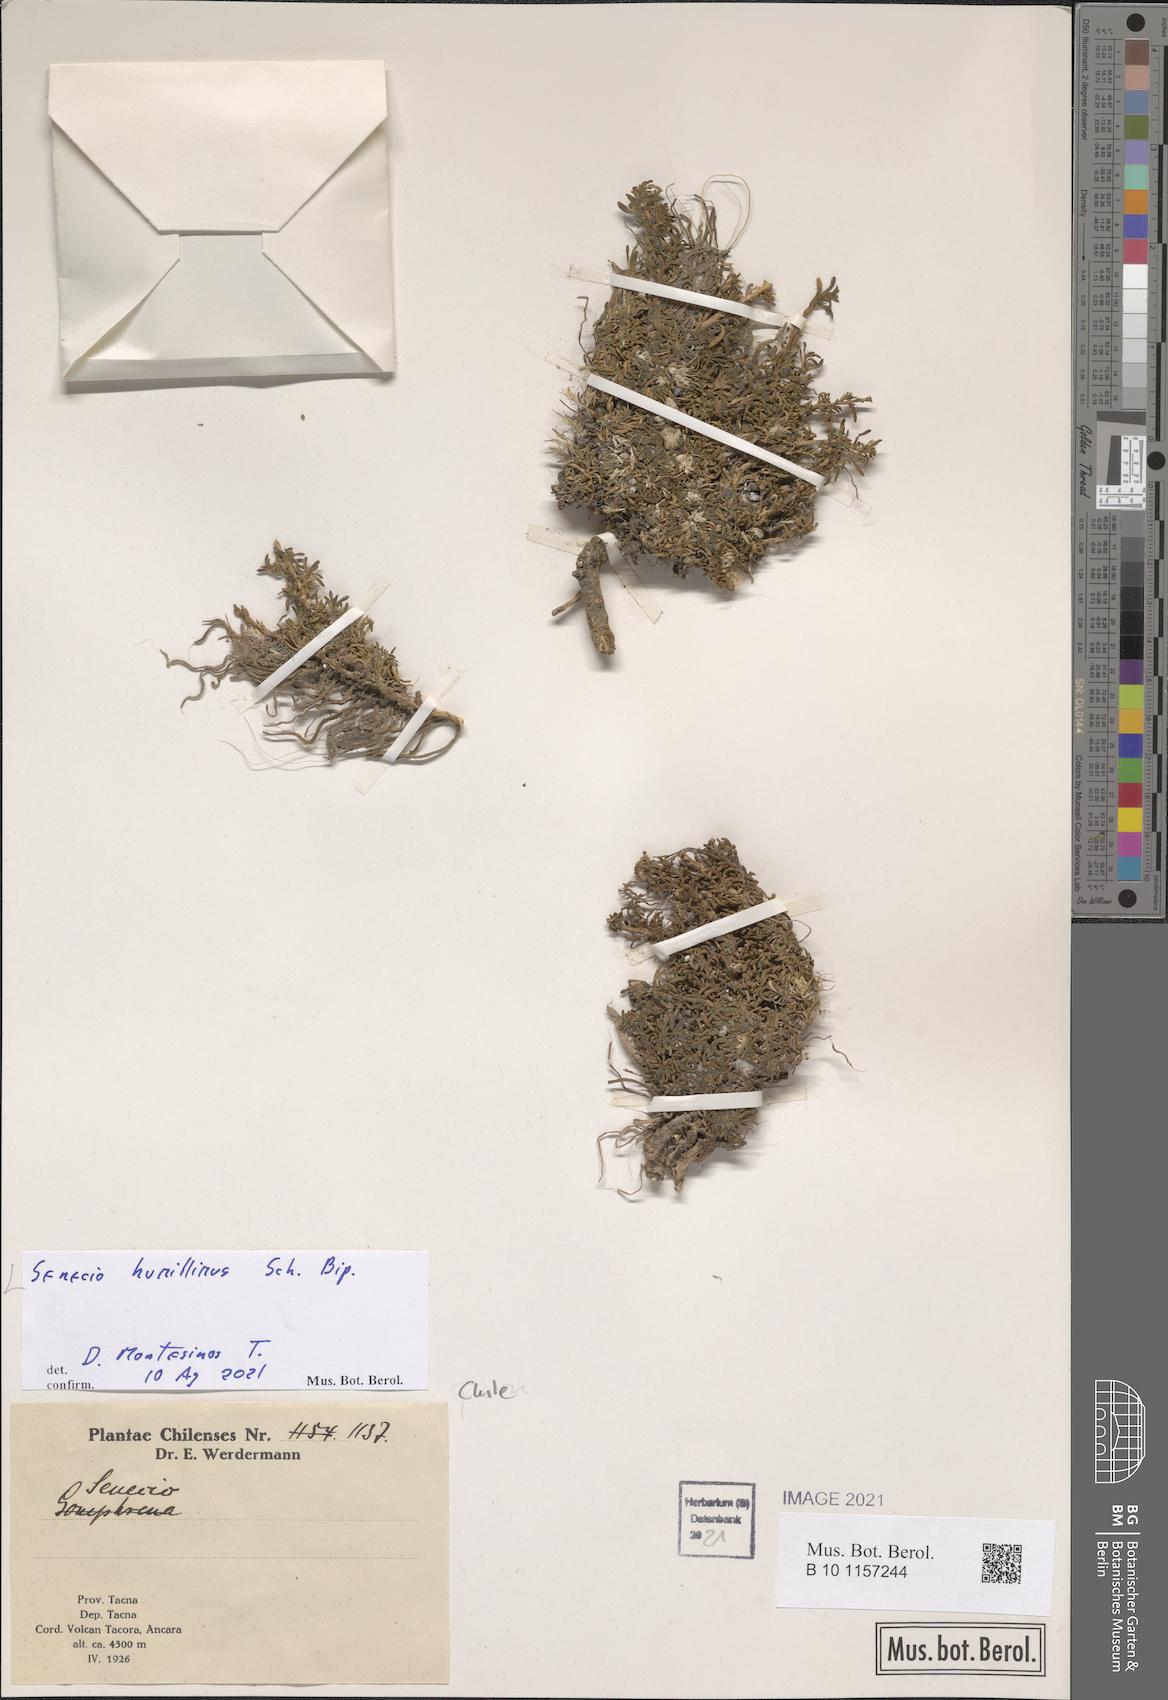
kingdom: Plantae
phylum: Tracheophyta
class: Magnoliopsida
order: Asterales
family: Asteraceae
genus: Senecio
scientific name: Senecio humillimus
